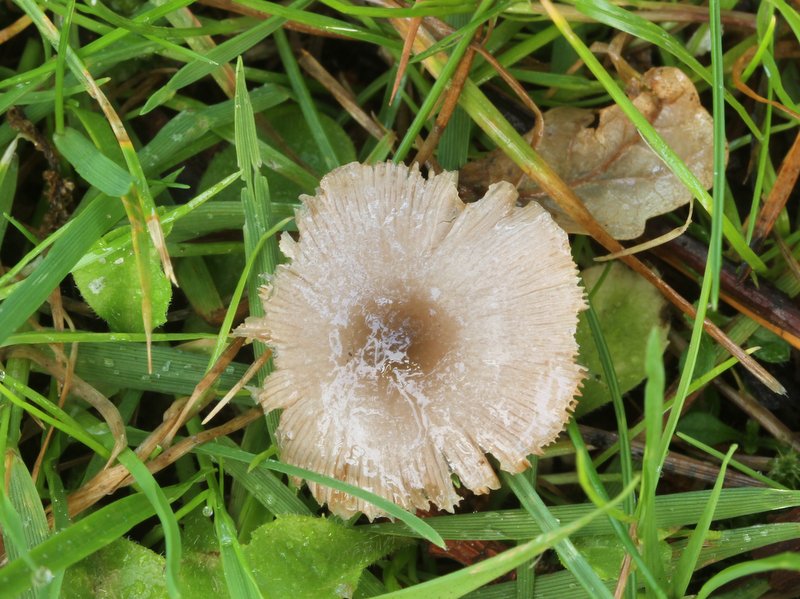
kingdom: Fungi
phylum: Basidiomycota
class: Agaricomycetes
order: Agaricales
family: Bolbitiaceae
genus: Bolbitius
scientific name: Bolbitius reticulatus
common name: netåret gulhat
